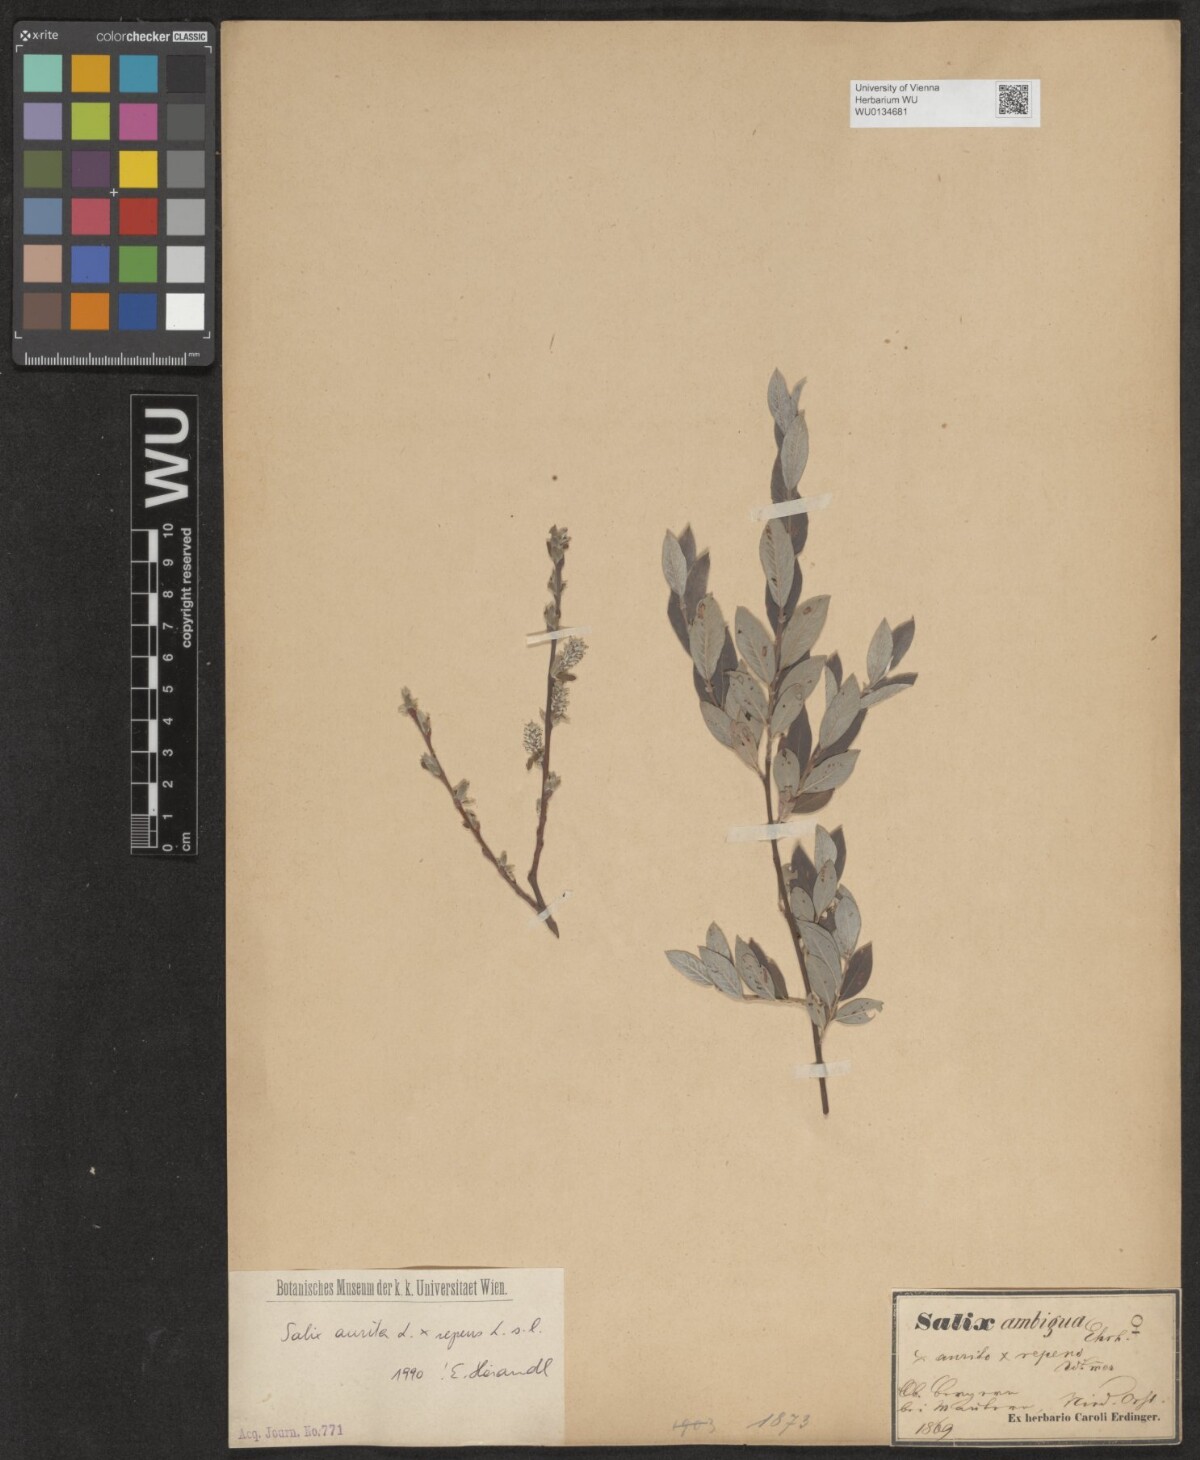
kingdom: Plantae
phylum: Tracheophyta
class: Magnoliopsida
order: Malpighiales
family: Salicaceae
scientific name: Salicaceae
